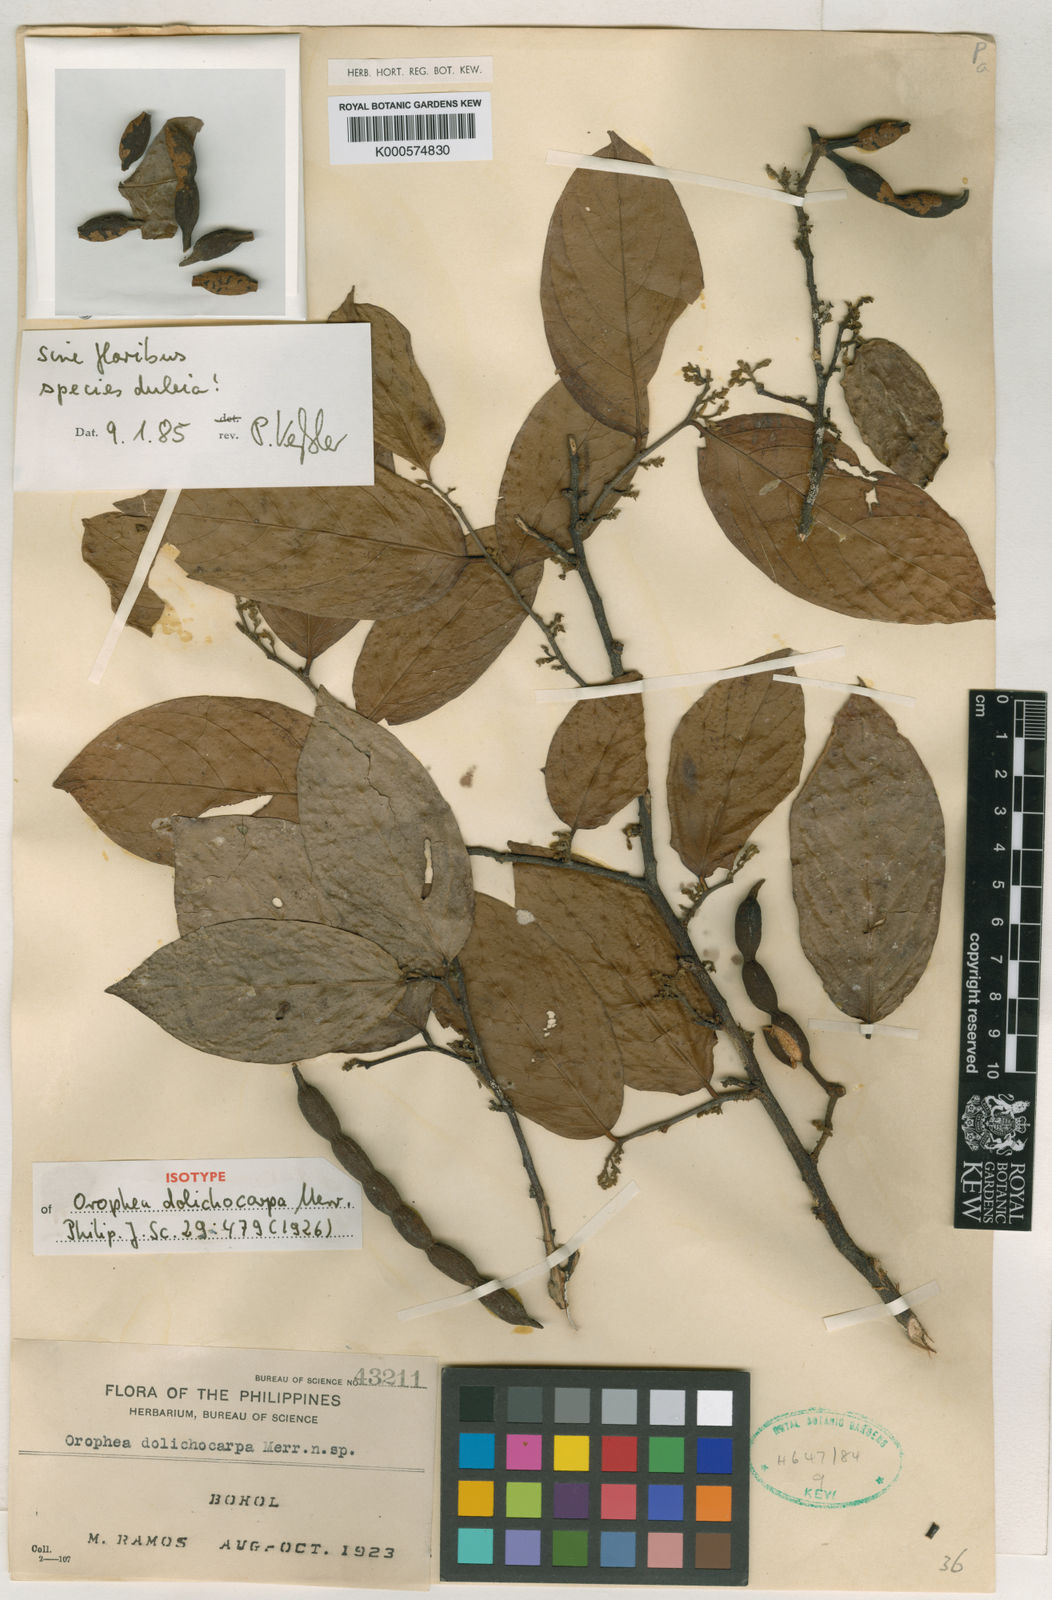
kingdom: Plantae
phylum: Tracheophyta
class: Magnoliopsida
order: Magnoliales
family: Annonaceae
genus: Pseuduvaria
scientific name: Pseuduvaria luzoniensis
